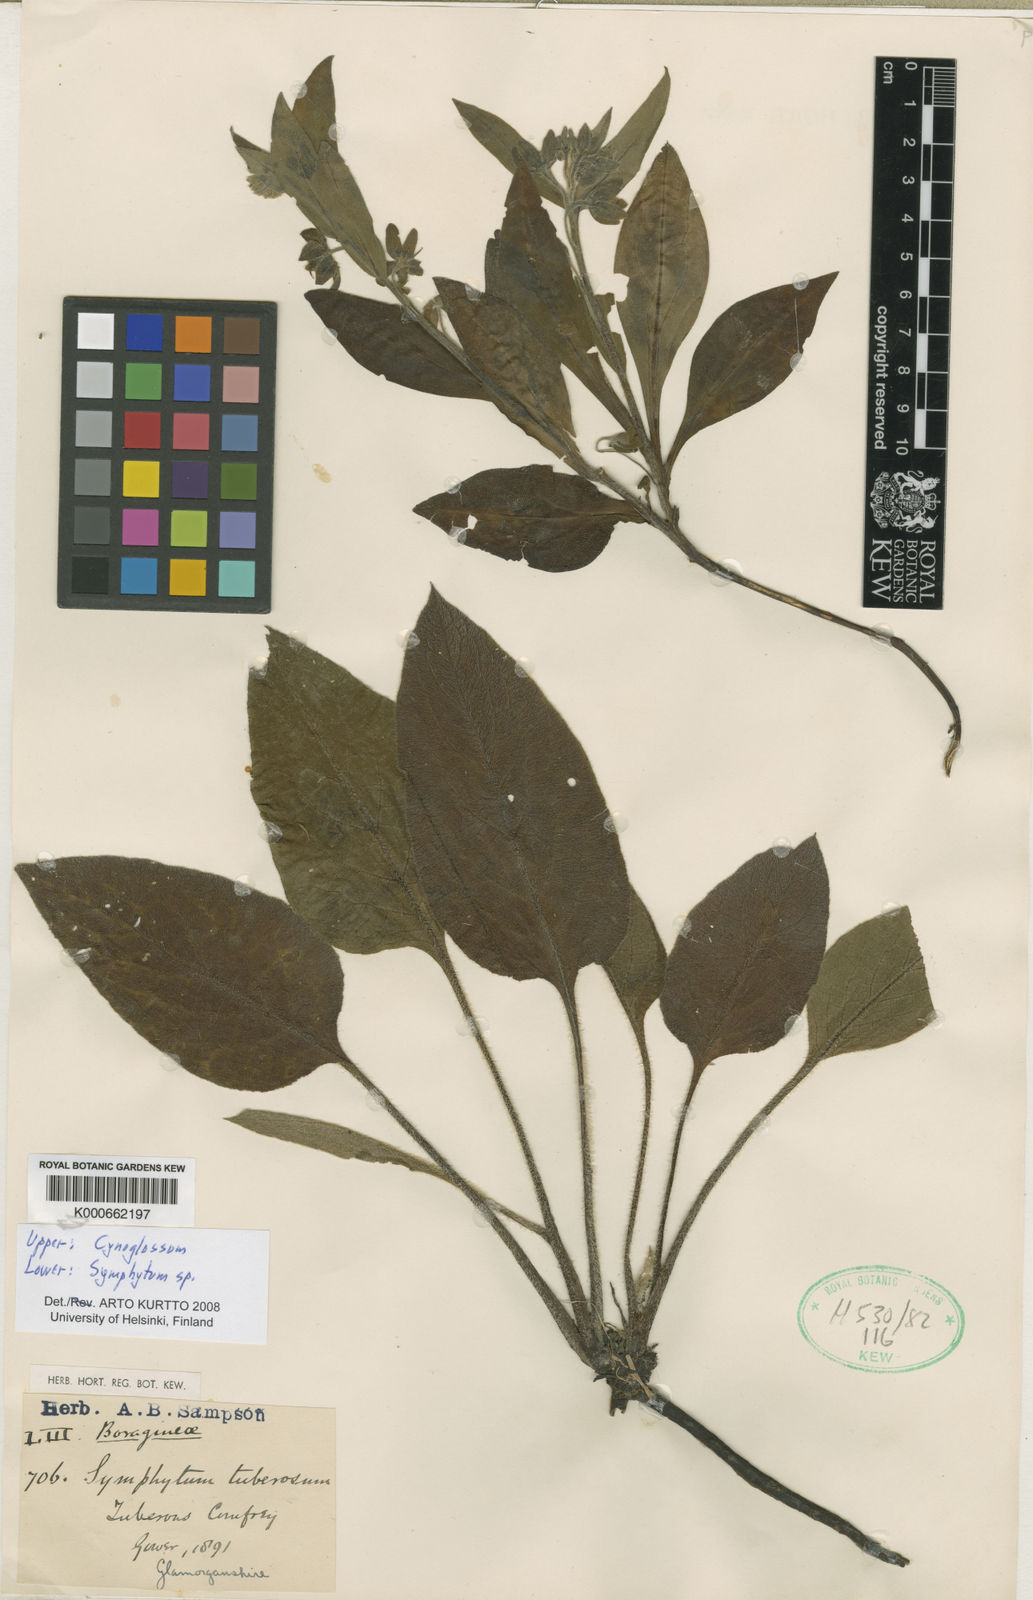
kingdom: Plantae
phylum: Tracheophyta
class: Magnoliopsida
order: Boraginales
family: Boraginaceae
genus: Cynoglossum
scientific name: Cynoglossum
